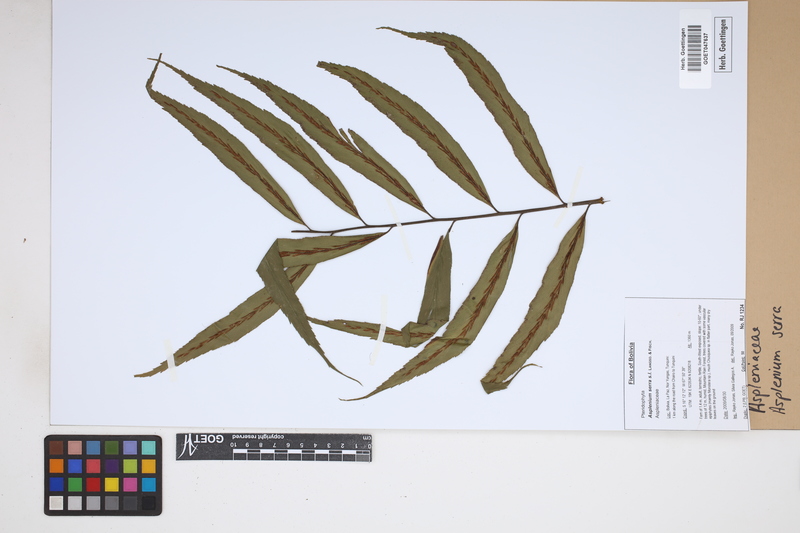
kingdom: Plantae
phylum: Tracheophyta
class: Polypodiopsida
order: Polypodiales
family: Aspleniaceae
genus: Asplenium
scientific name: Asplenium serra
